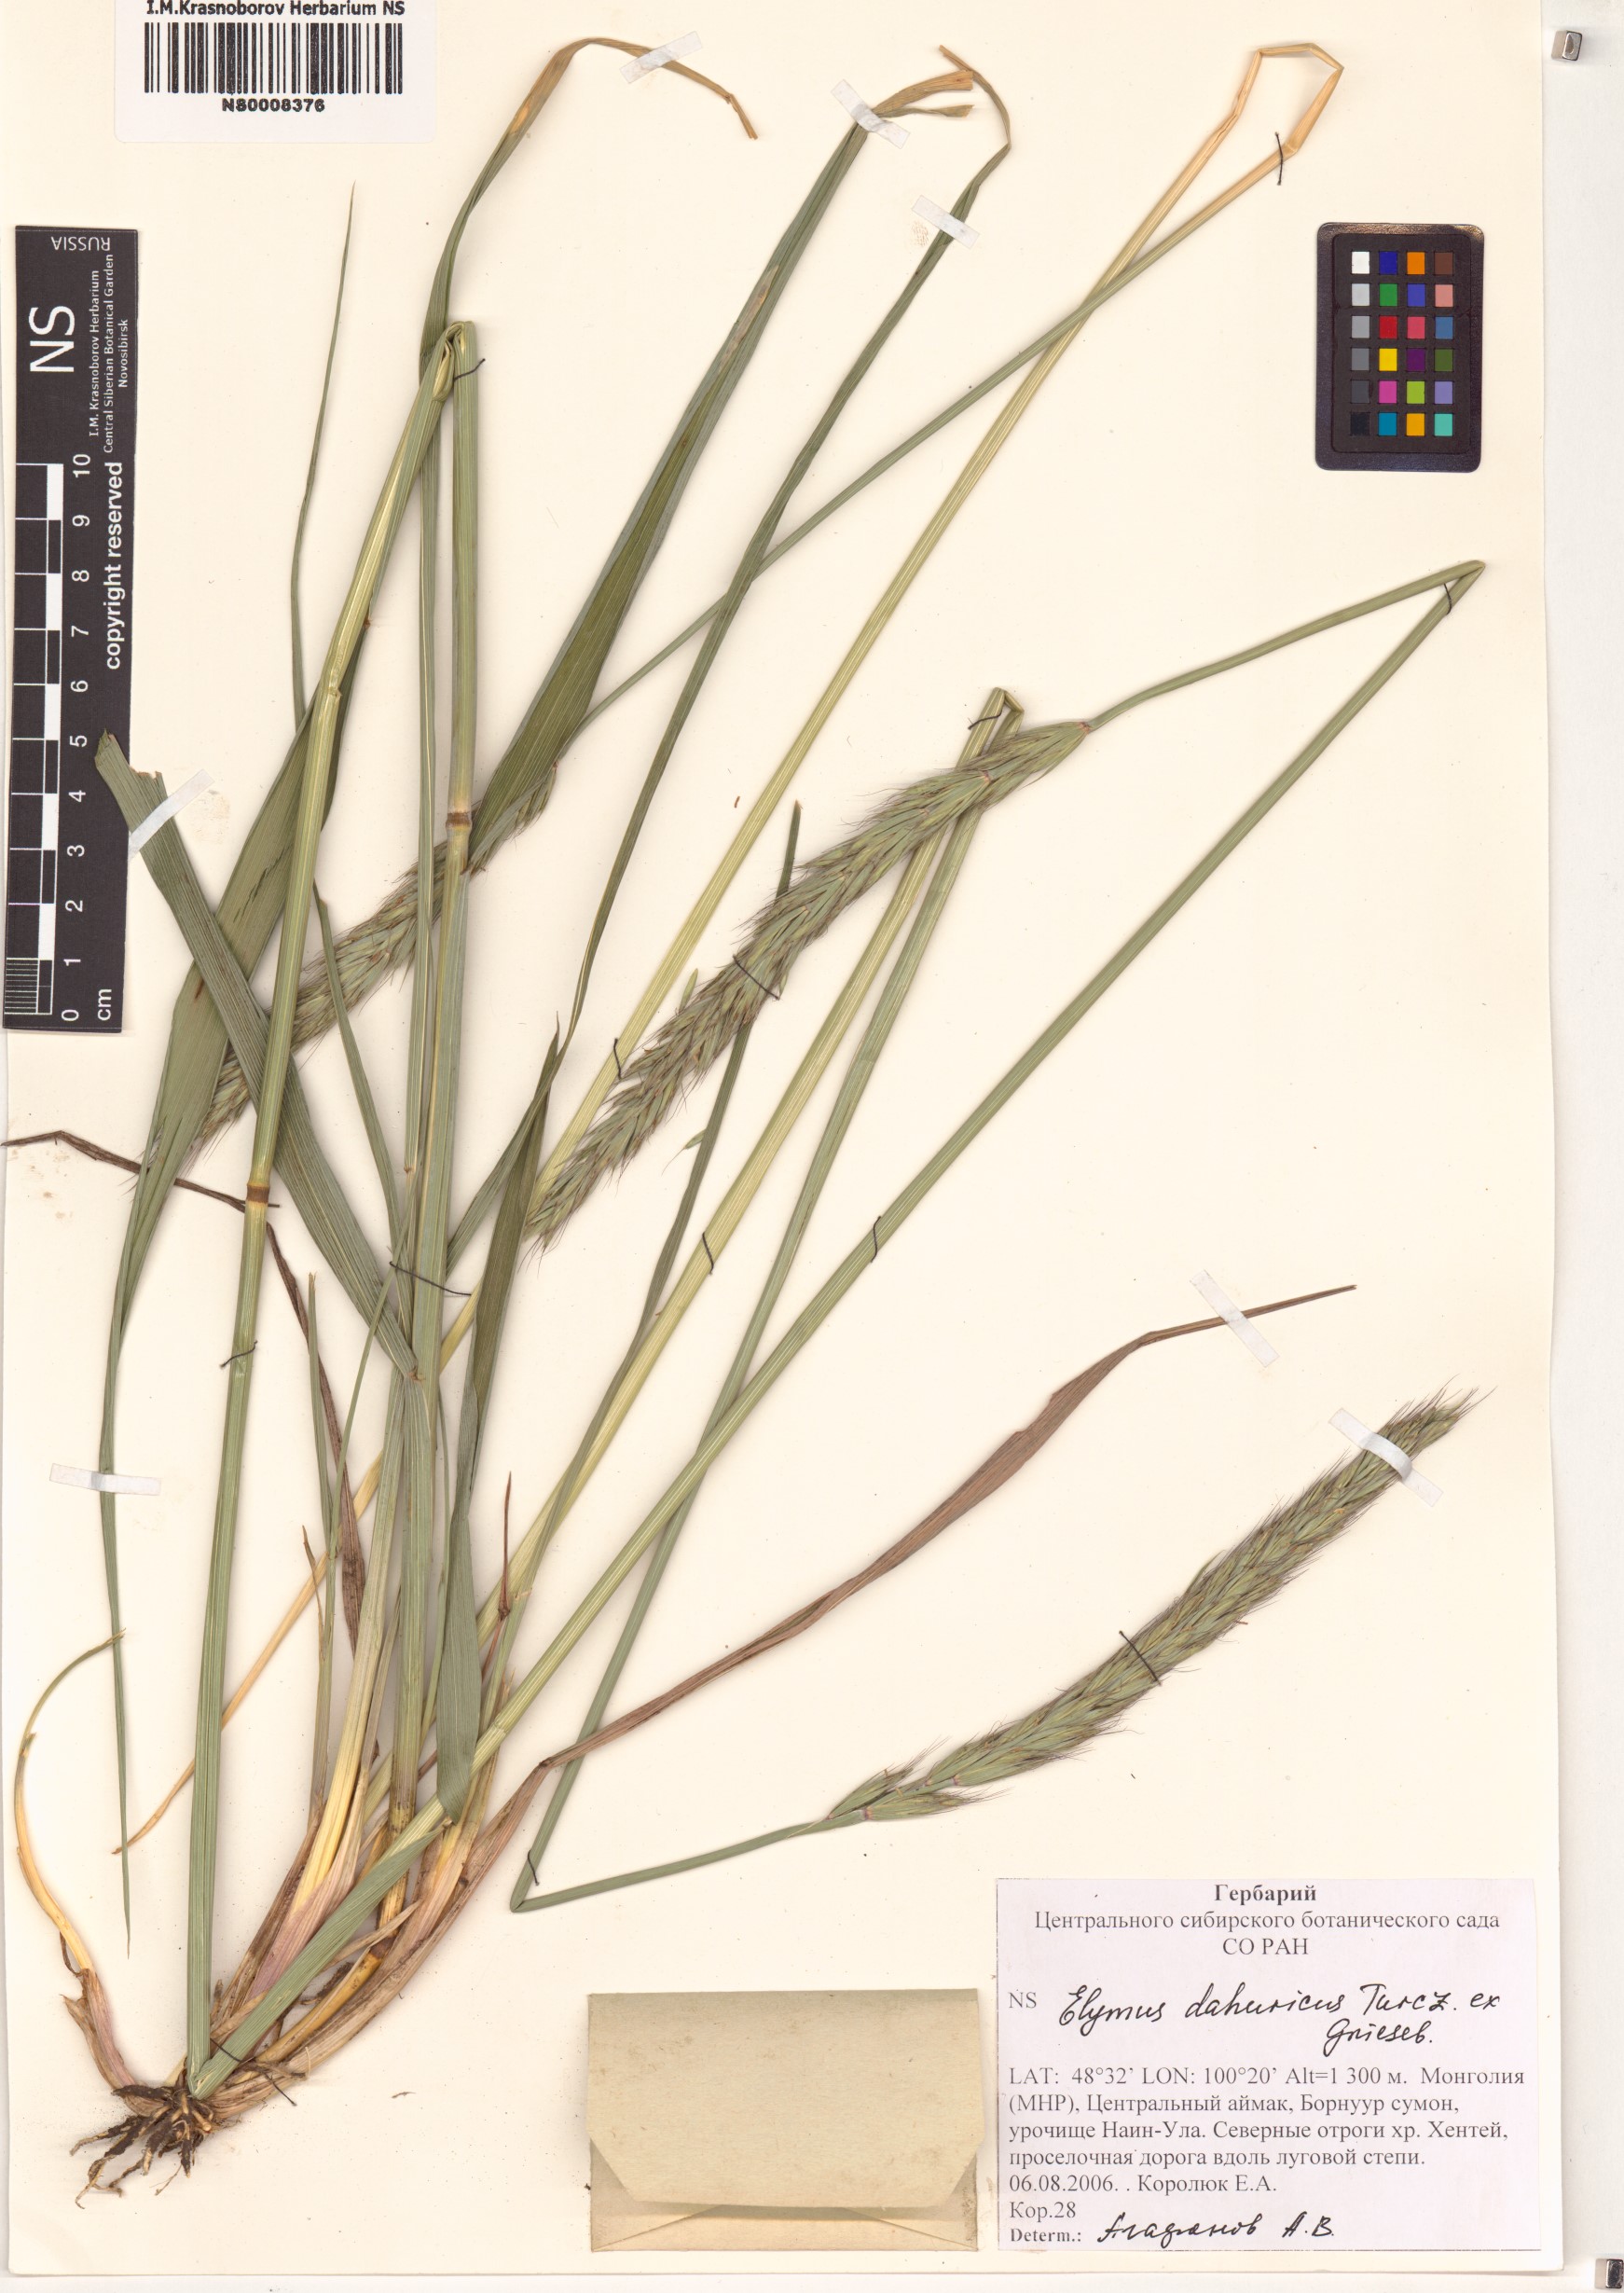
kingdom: Plantae
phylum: Tracheophyta
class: Liliopsida
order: Poales
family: Poaceae
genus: Elymus
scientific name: Elymus dahuricus
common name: Dahurian wild rye
